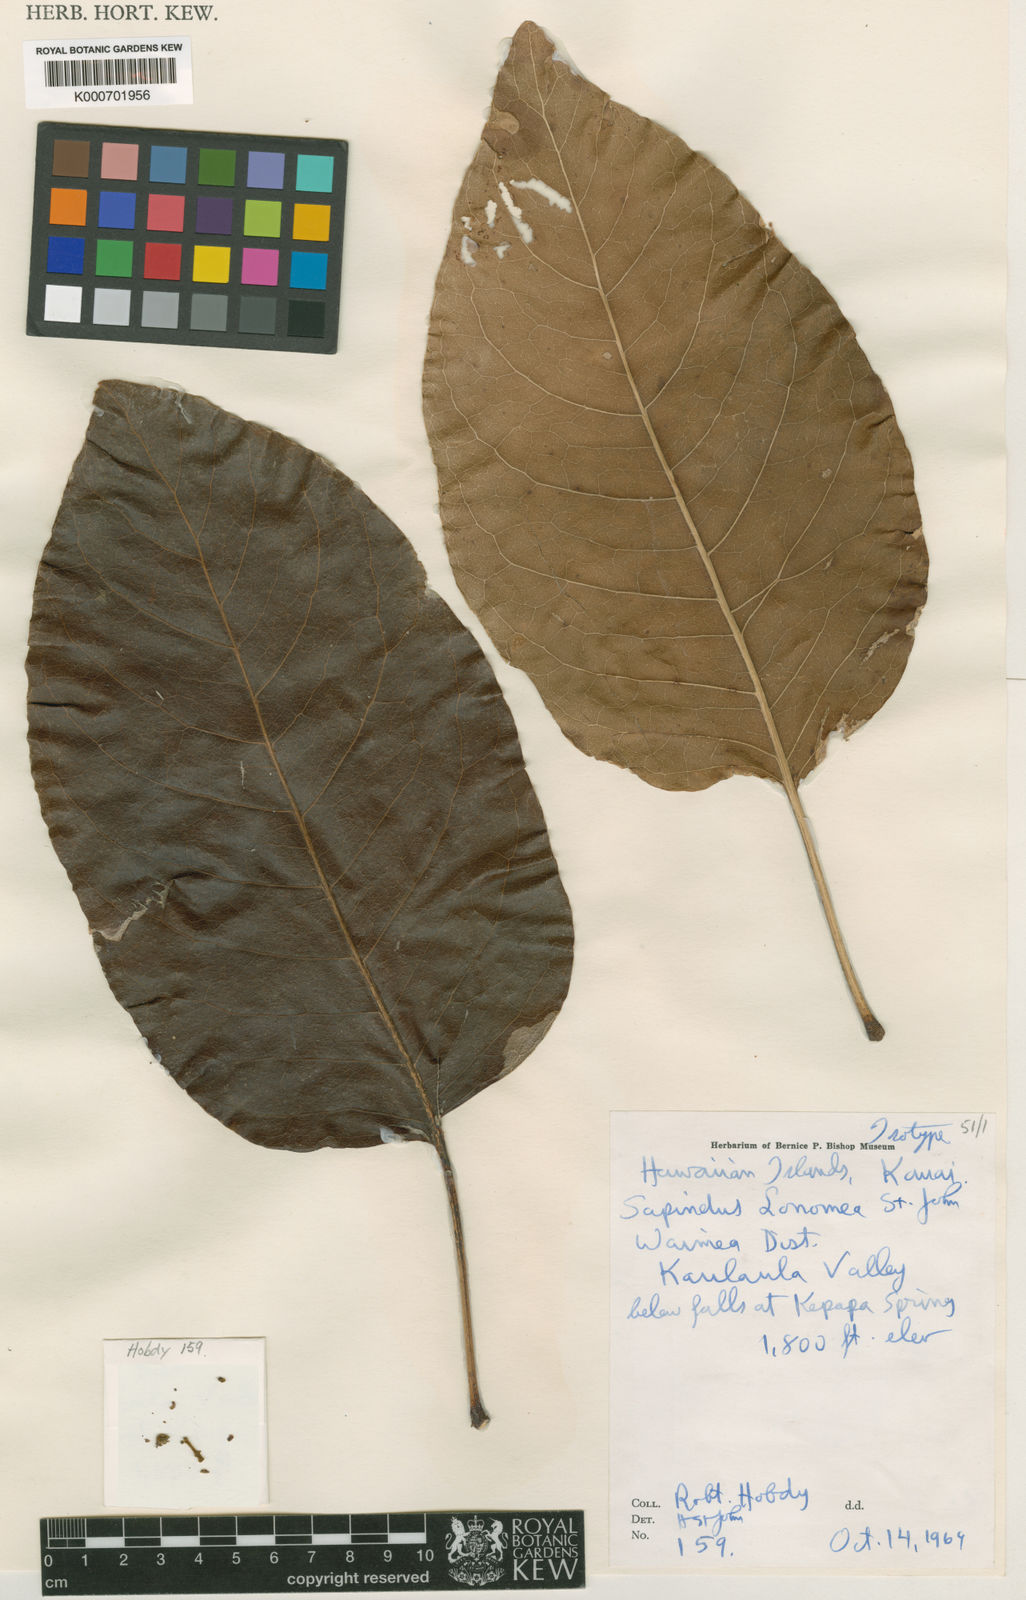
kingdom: Plantae
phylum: Tracheophyta
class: Magnoliopsida
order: Sapindales
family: Sapindaceae
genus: Sapindus
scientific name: Sapindus oahuensis
